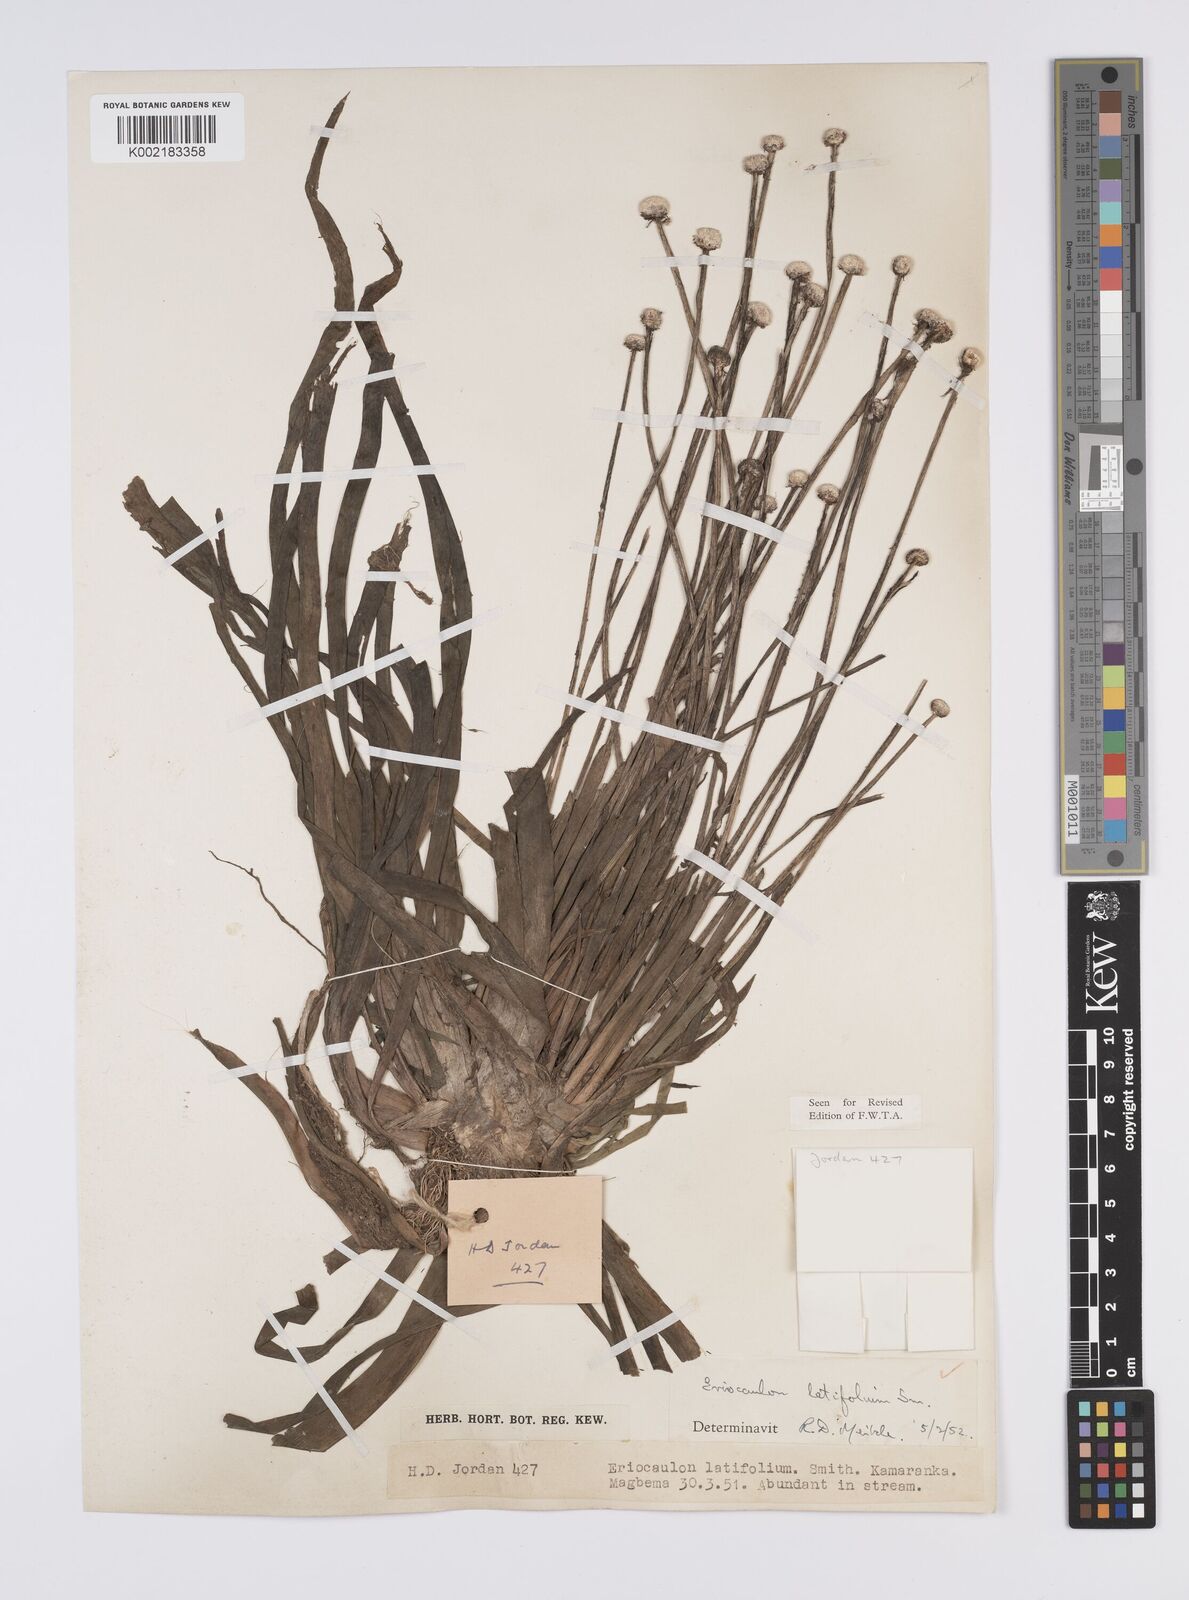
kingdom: Plantae
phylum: Tracheophyta
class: Liliopsida
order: Poales
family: Eriocaulaceae
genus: Eriocaulon
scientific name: Eriocaulon latifolium
